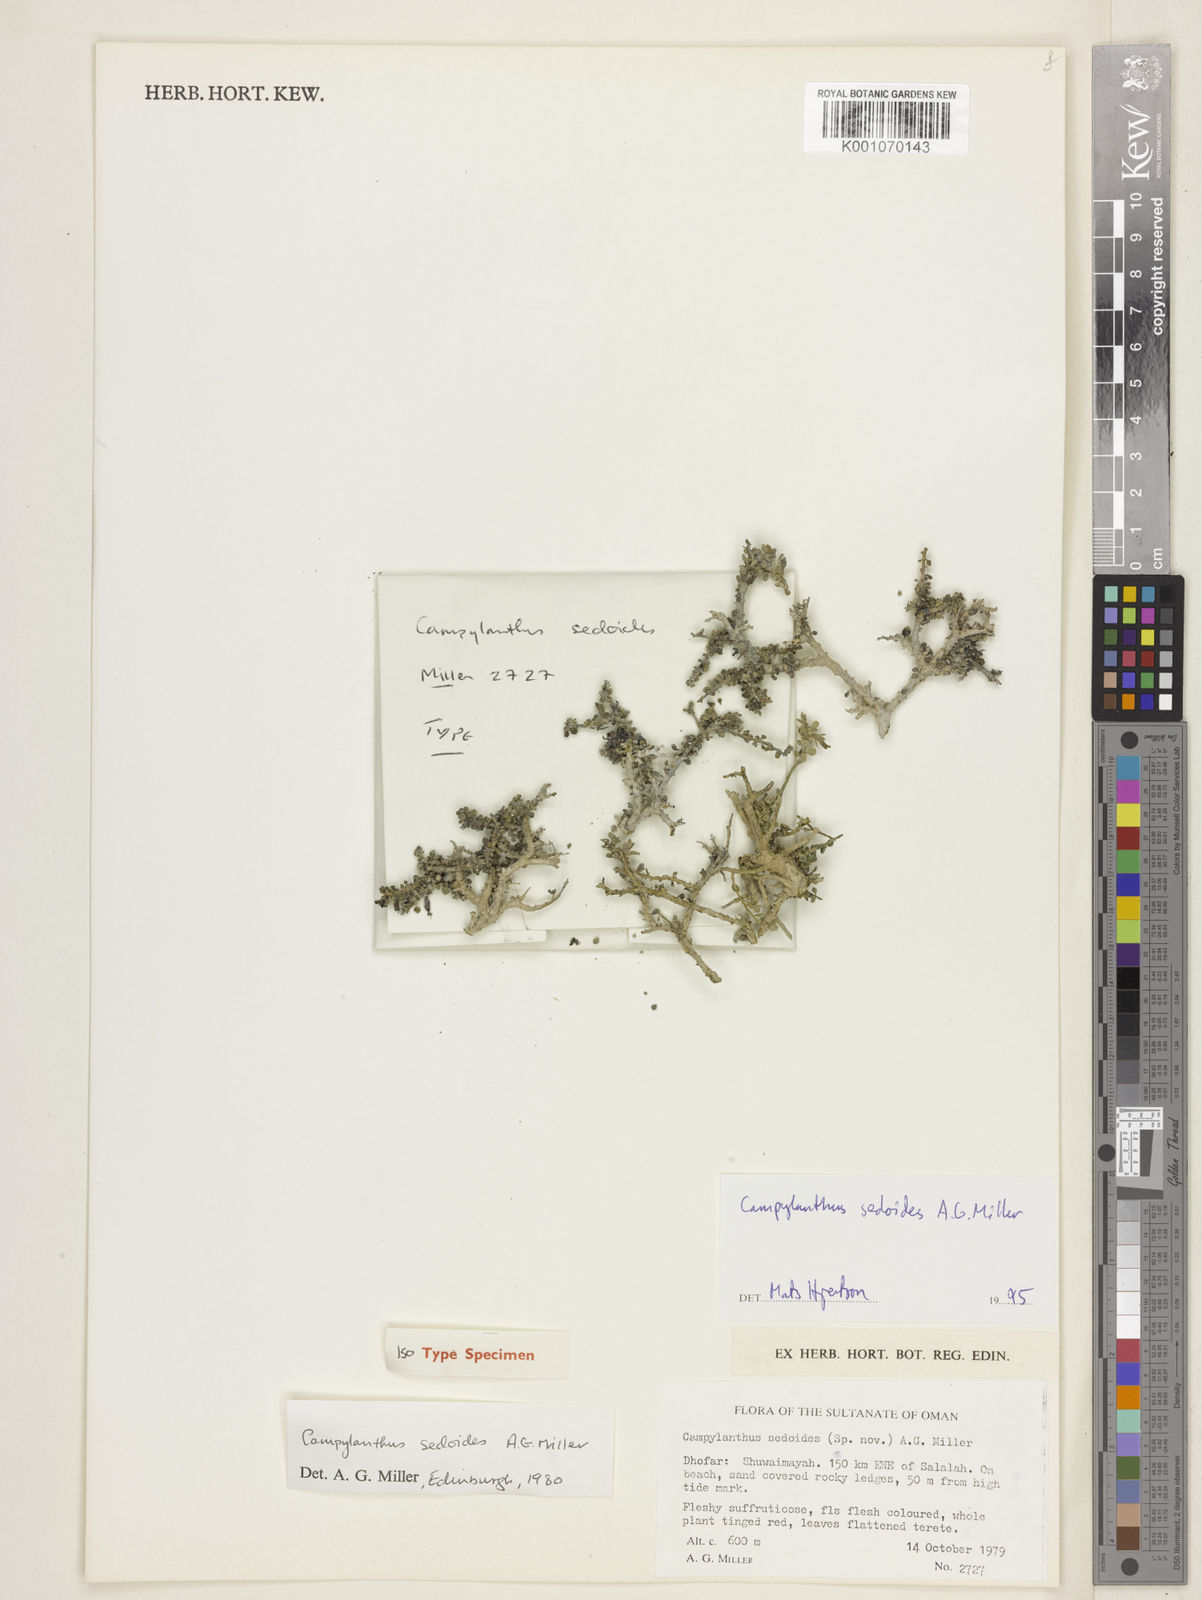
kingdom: Plantae
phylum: Tracheophyta
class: Magnoliopsida
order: Lamiales
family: Plantaginaceae
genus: Campylanthus
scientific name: Campylanthus sedoides
